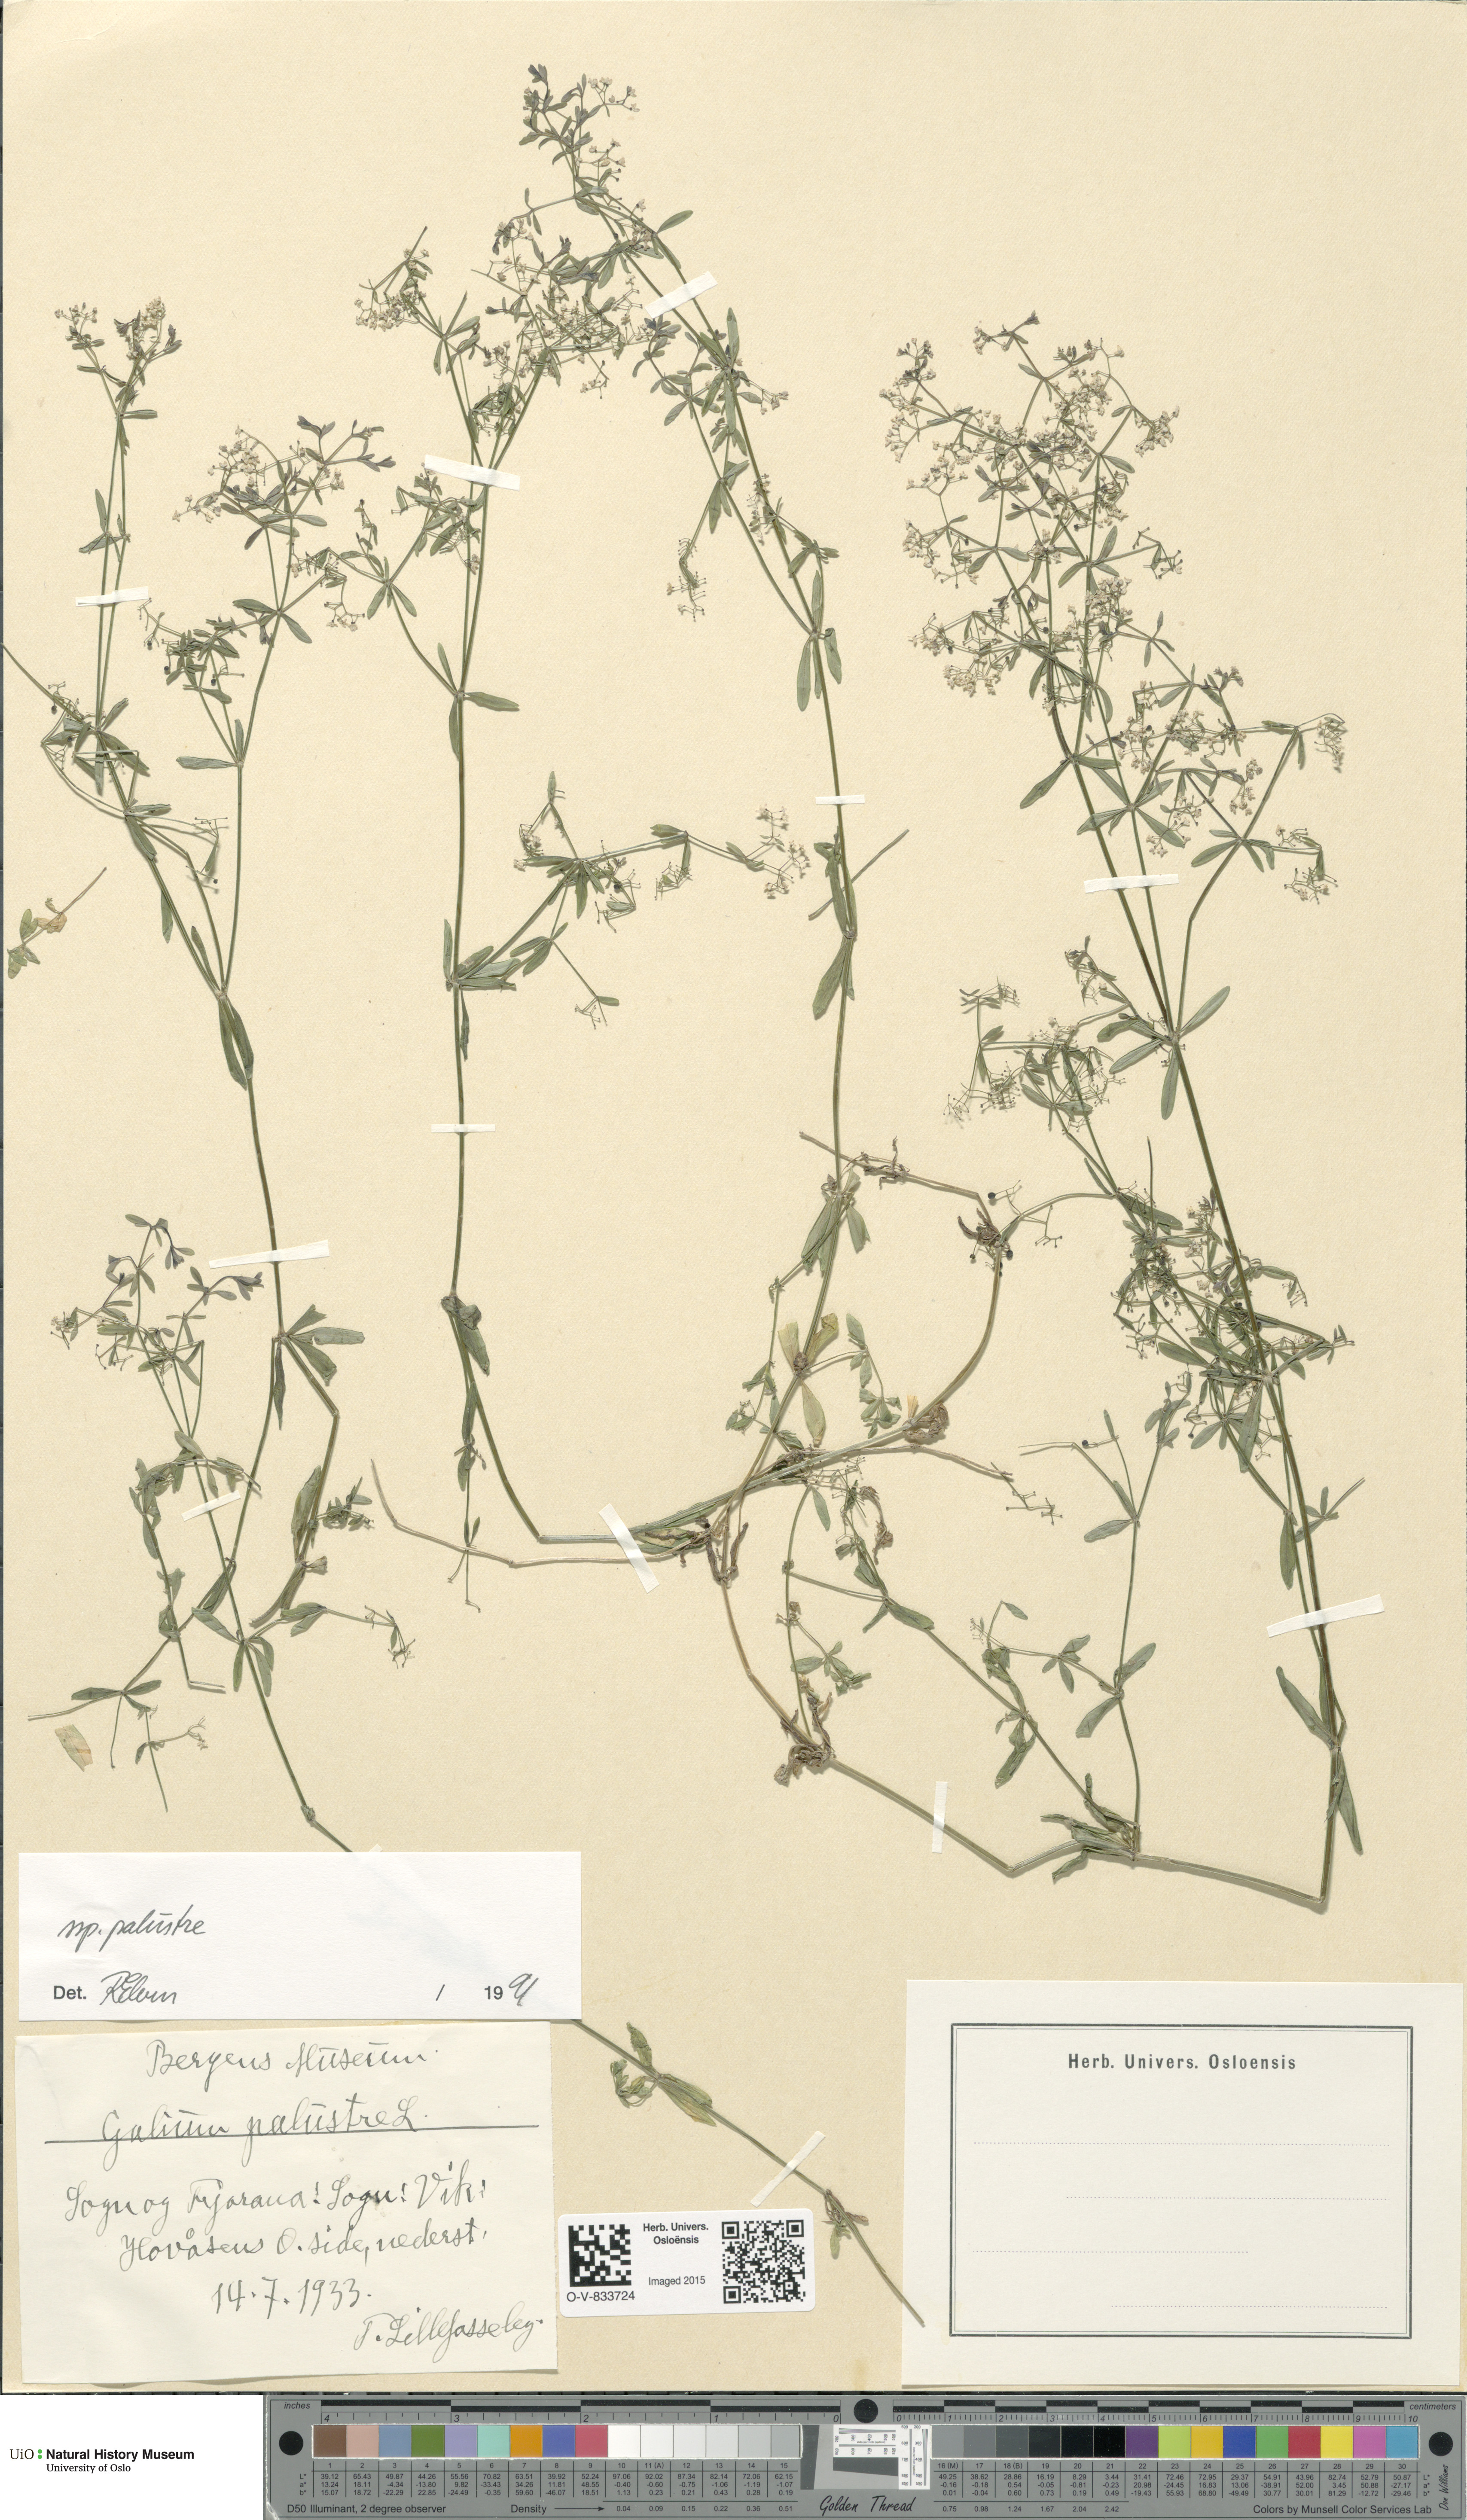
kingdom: Plantae
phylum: Tracheophyta
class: Magnoliopsida
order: Gentianales
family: Rubiaceae
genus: Galium
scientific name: Galium palustre
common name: Common marsh-bedstraw
